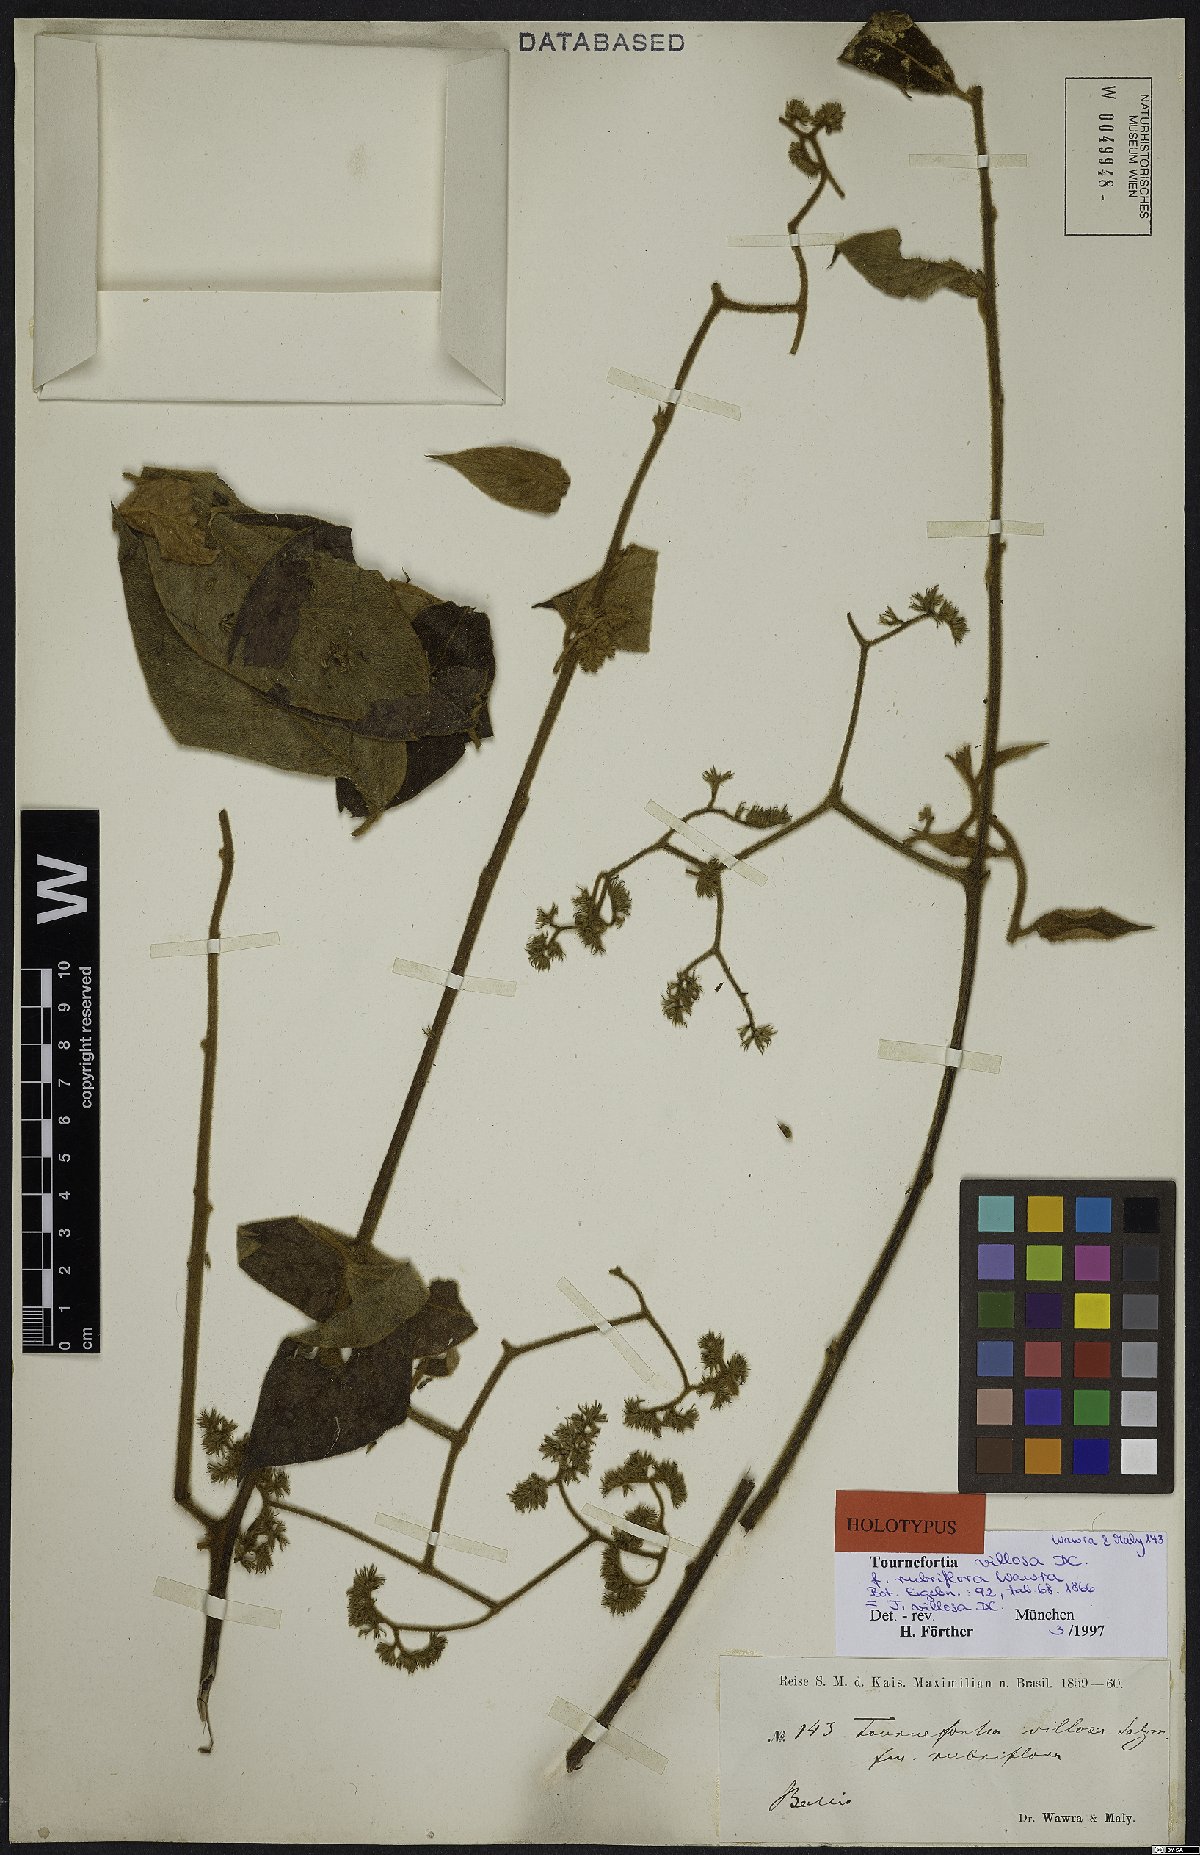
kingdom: Plantae
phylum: Tracheophyta
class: Magnoliopsida
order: Boraginales
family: Heliotropiaceae
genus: Tournefortia
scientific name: Tournefortia villosa
